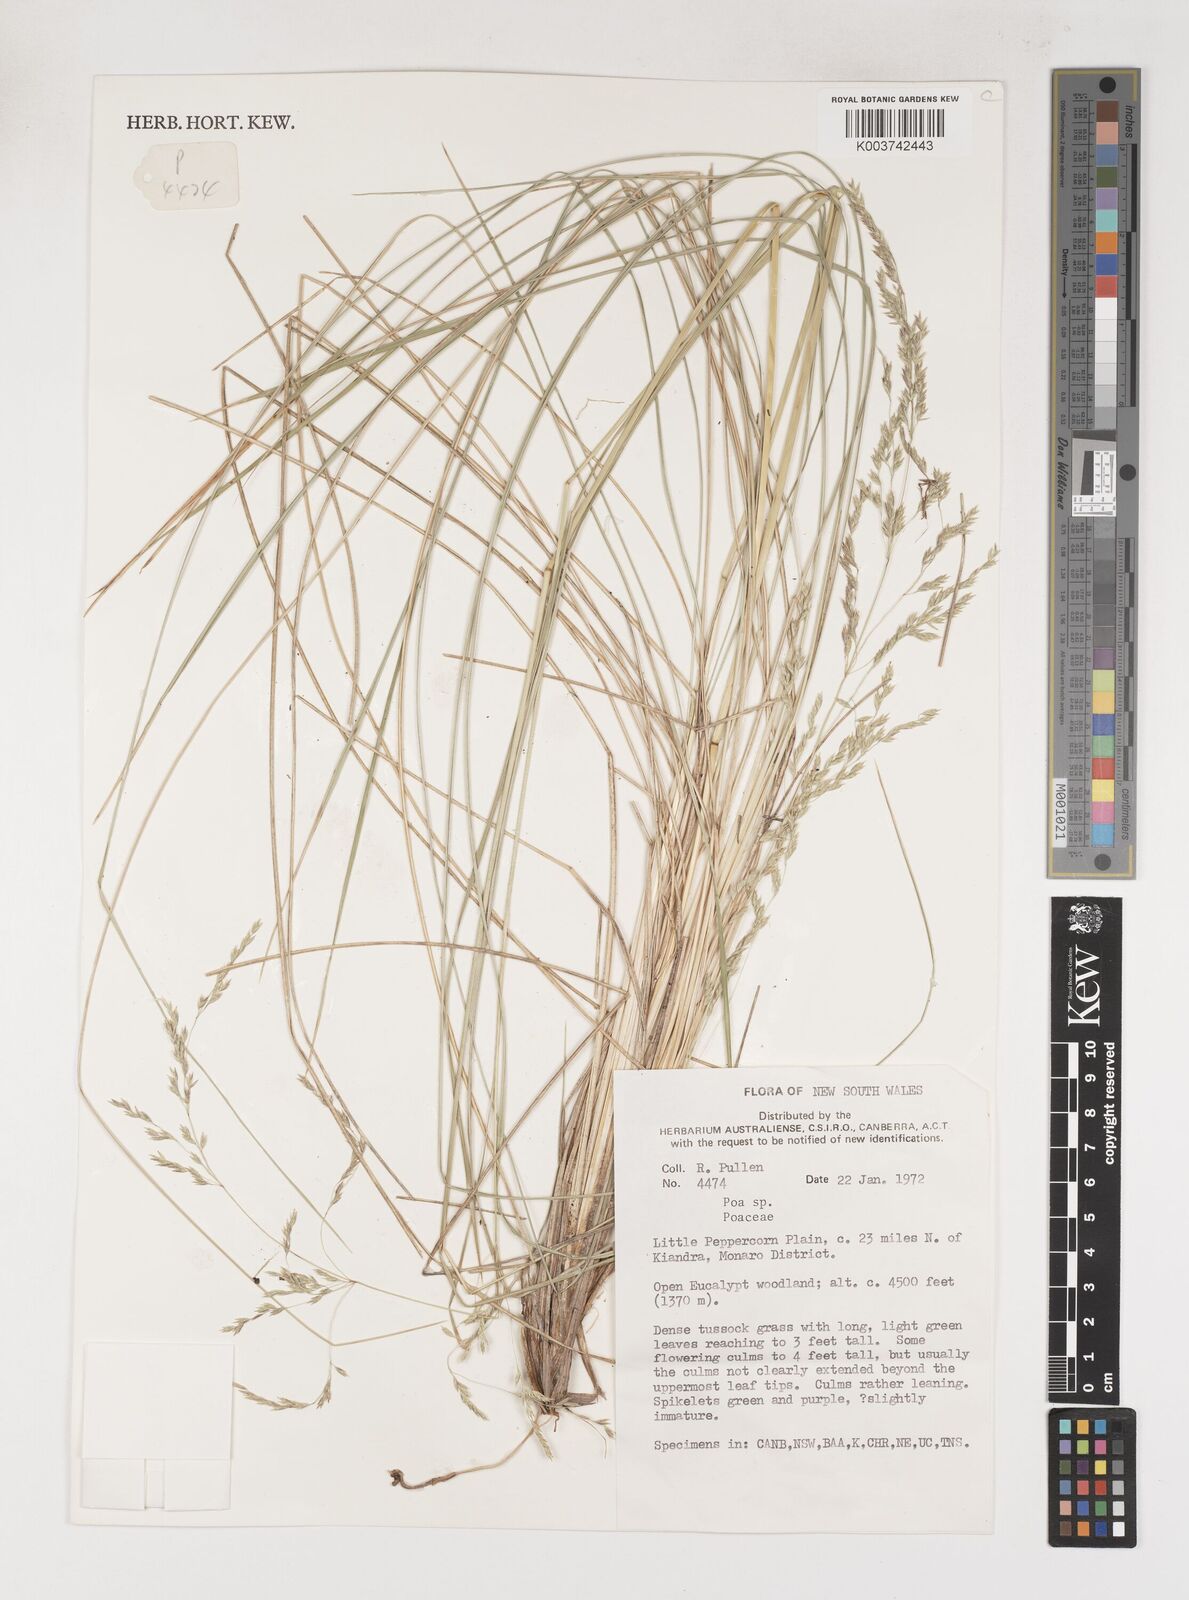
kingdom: Plantae
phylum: Tracheophyta
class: Liliopsida
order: Poales
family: Poaceae
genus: Poa
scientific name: Poa
